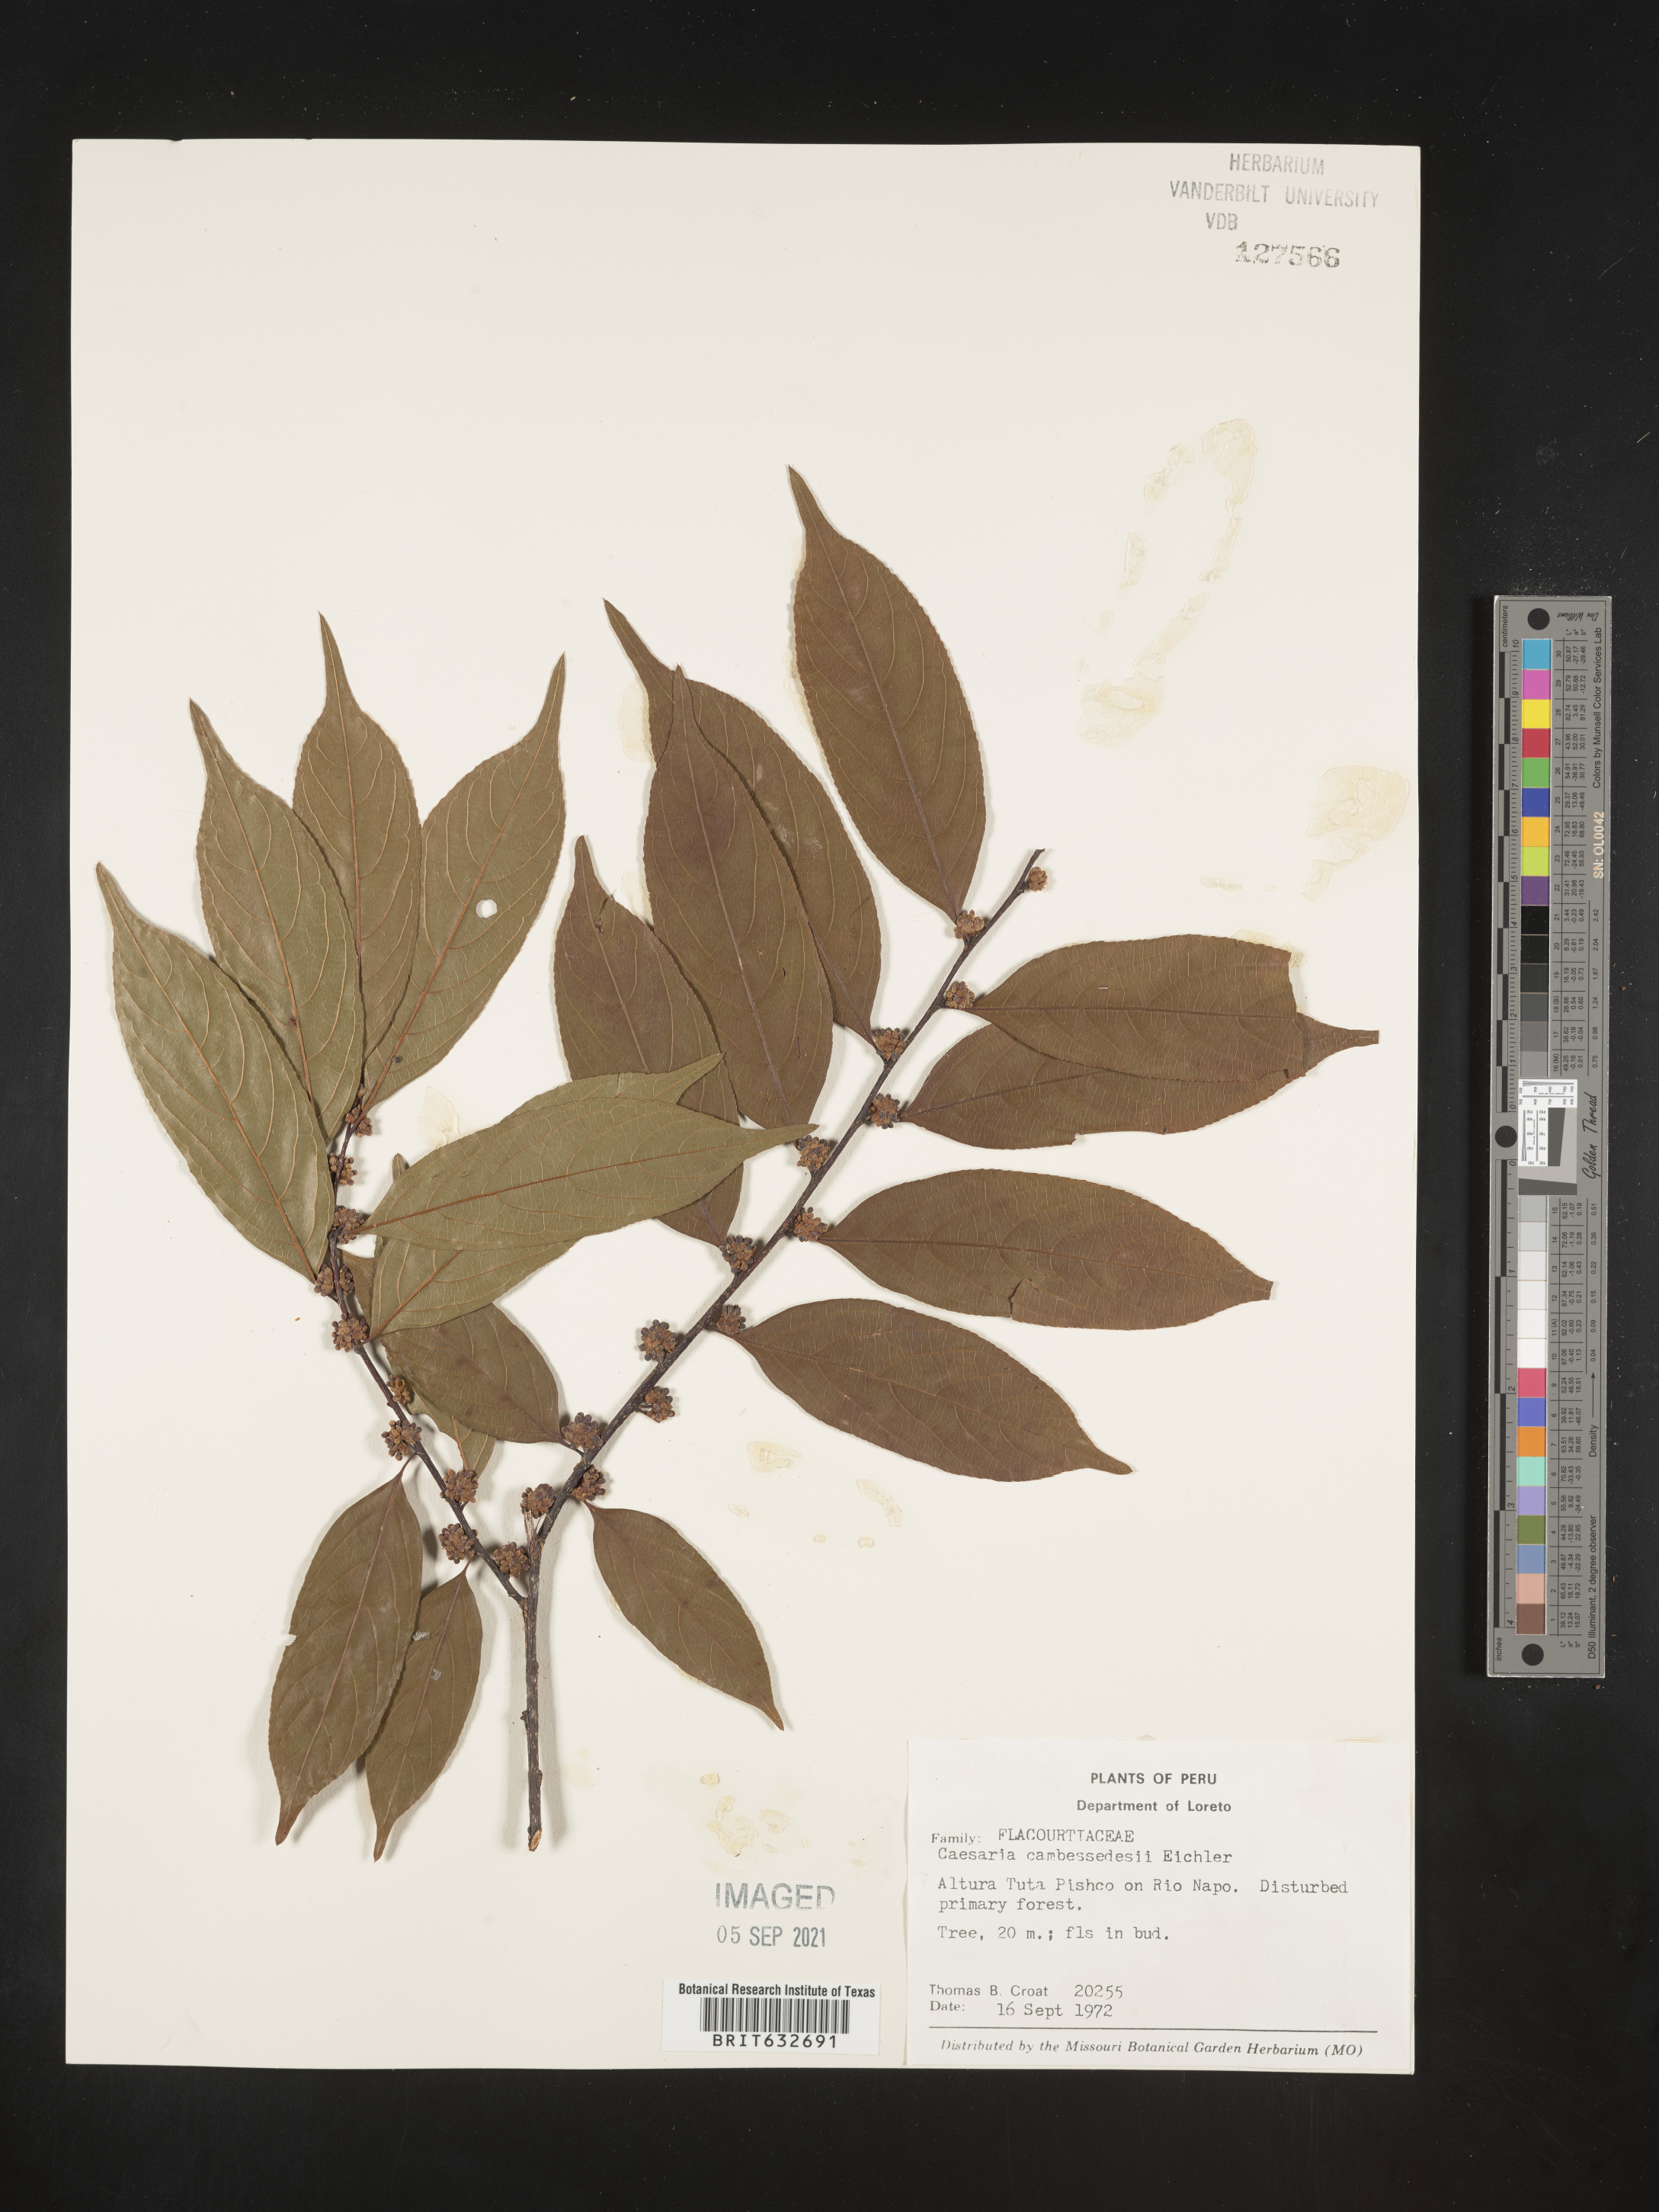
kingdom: Plantae
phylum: Tracheophyta
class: Magnoliopsida
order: Malpighiales
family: Salicaceae
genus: Casearia
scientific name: Casearia
